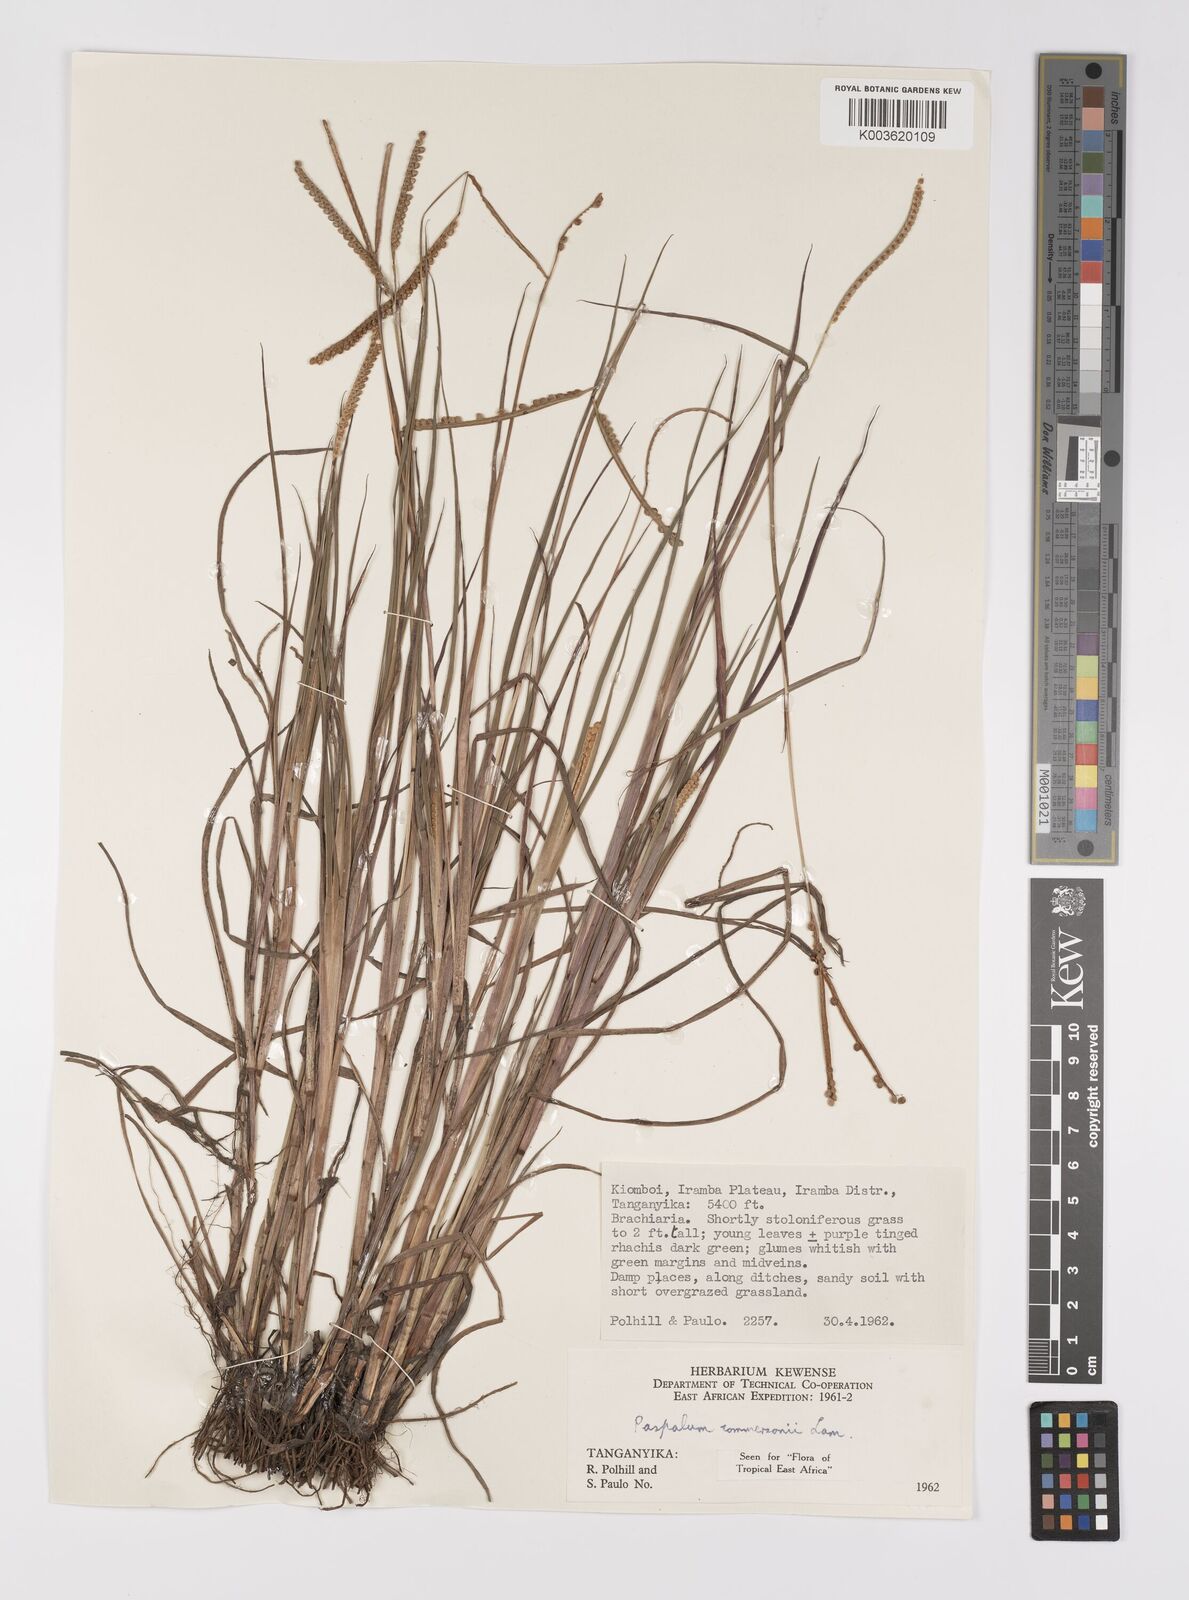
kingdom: Plantae
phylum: Tracheophyta
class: Liliopsida
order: Poales
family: Poaceae
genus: Paspalum
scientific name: Paspalum scrobiculatum
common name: Kodo millet
